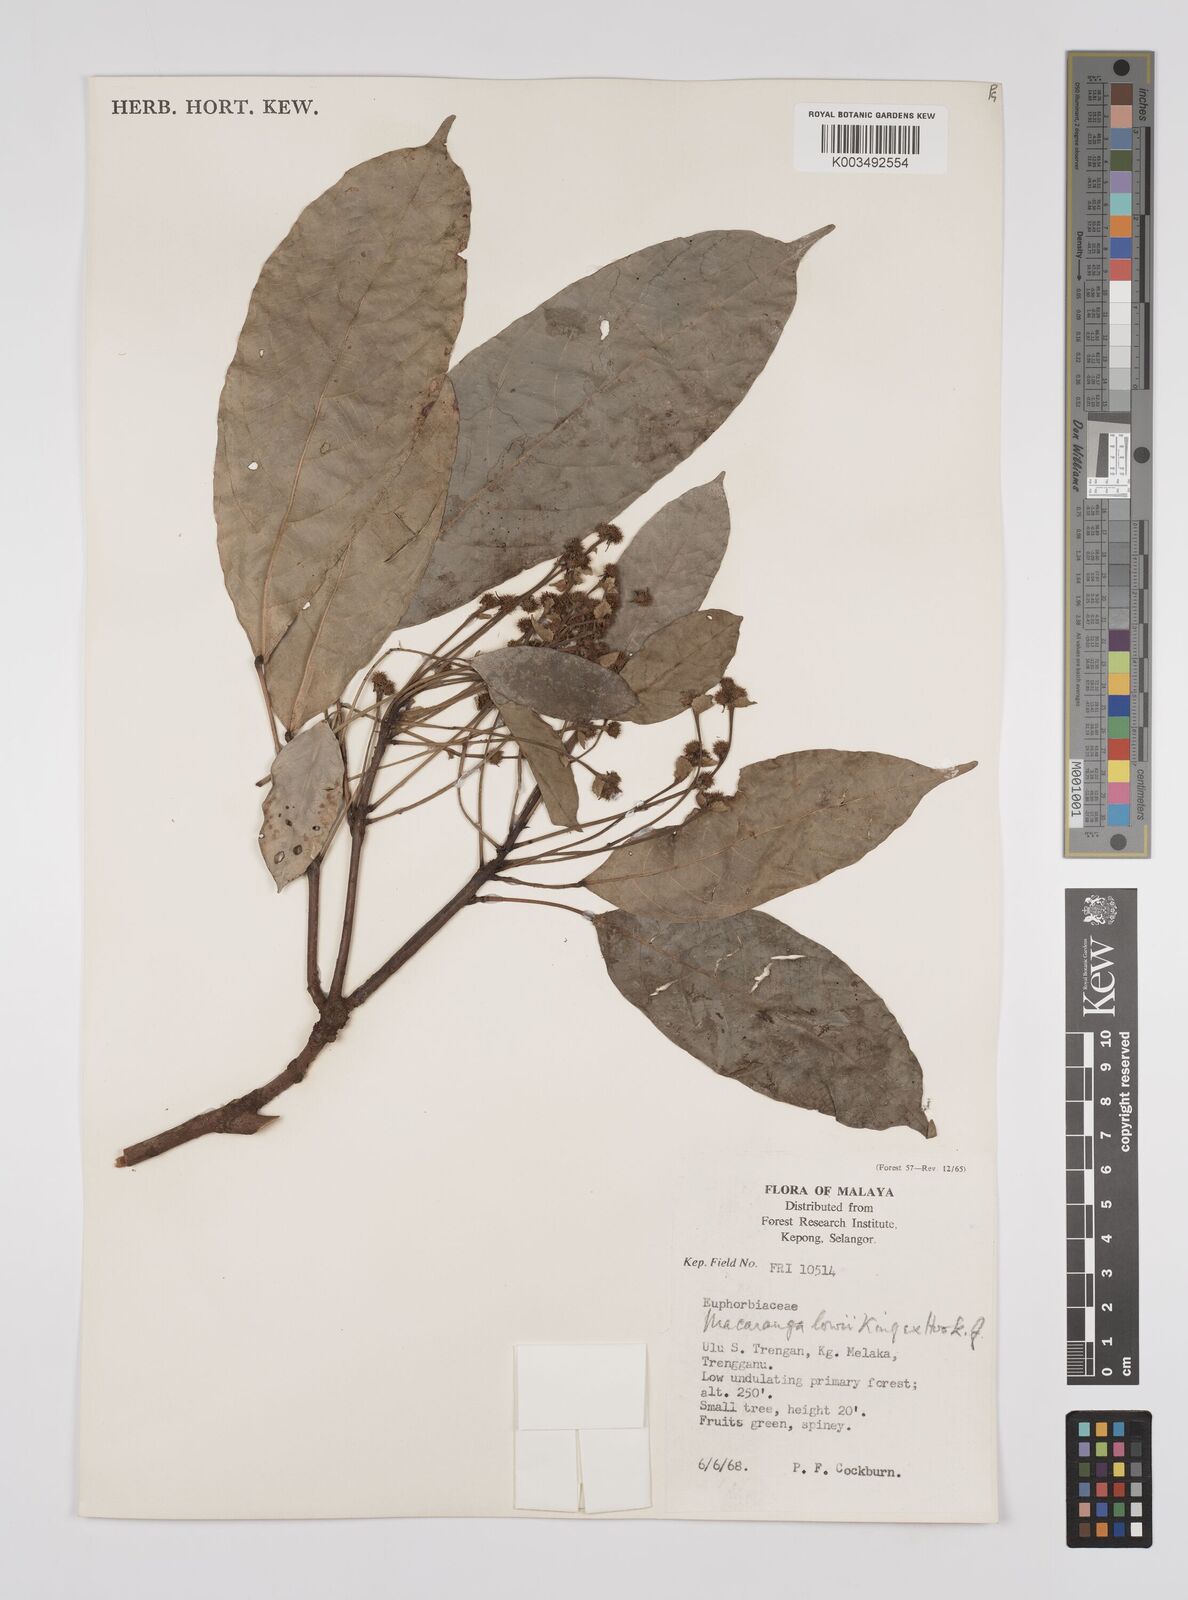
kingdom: Plantae
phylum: Tracheophyta
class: Magnoliopsida
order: Malpighiales
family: Euphorbiaceae
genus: Macaranga
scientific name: Macaranga lowii
